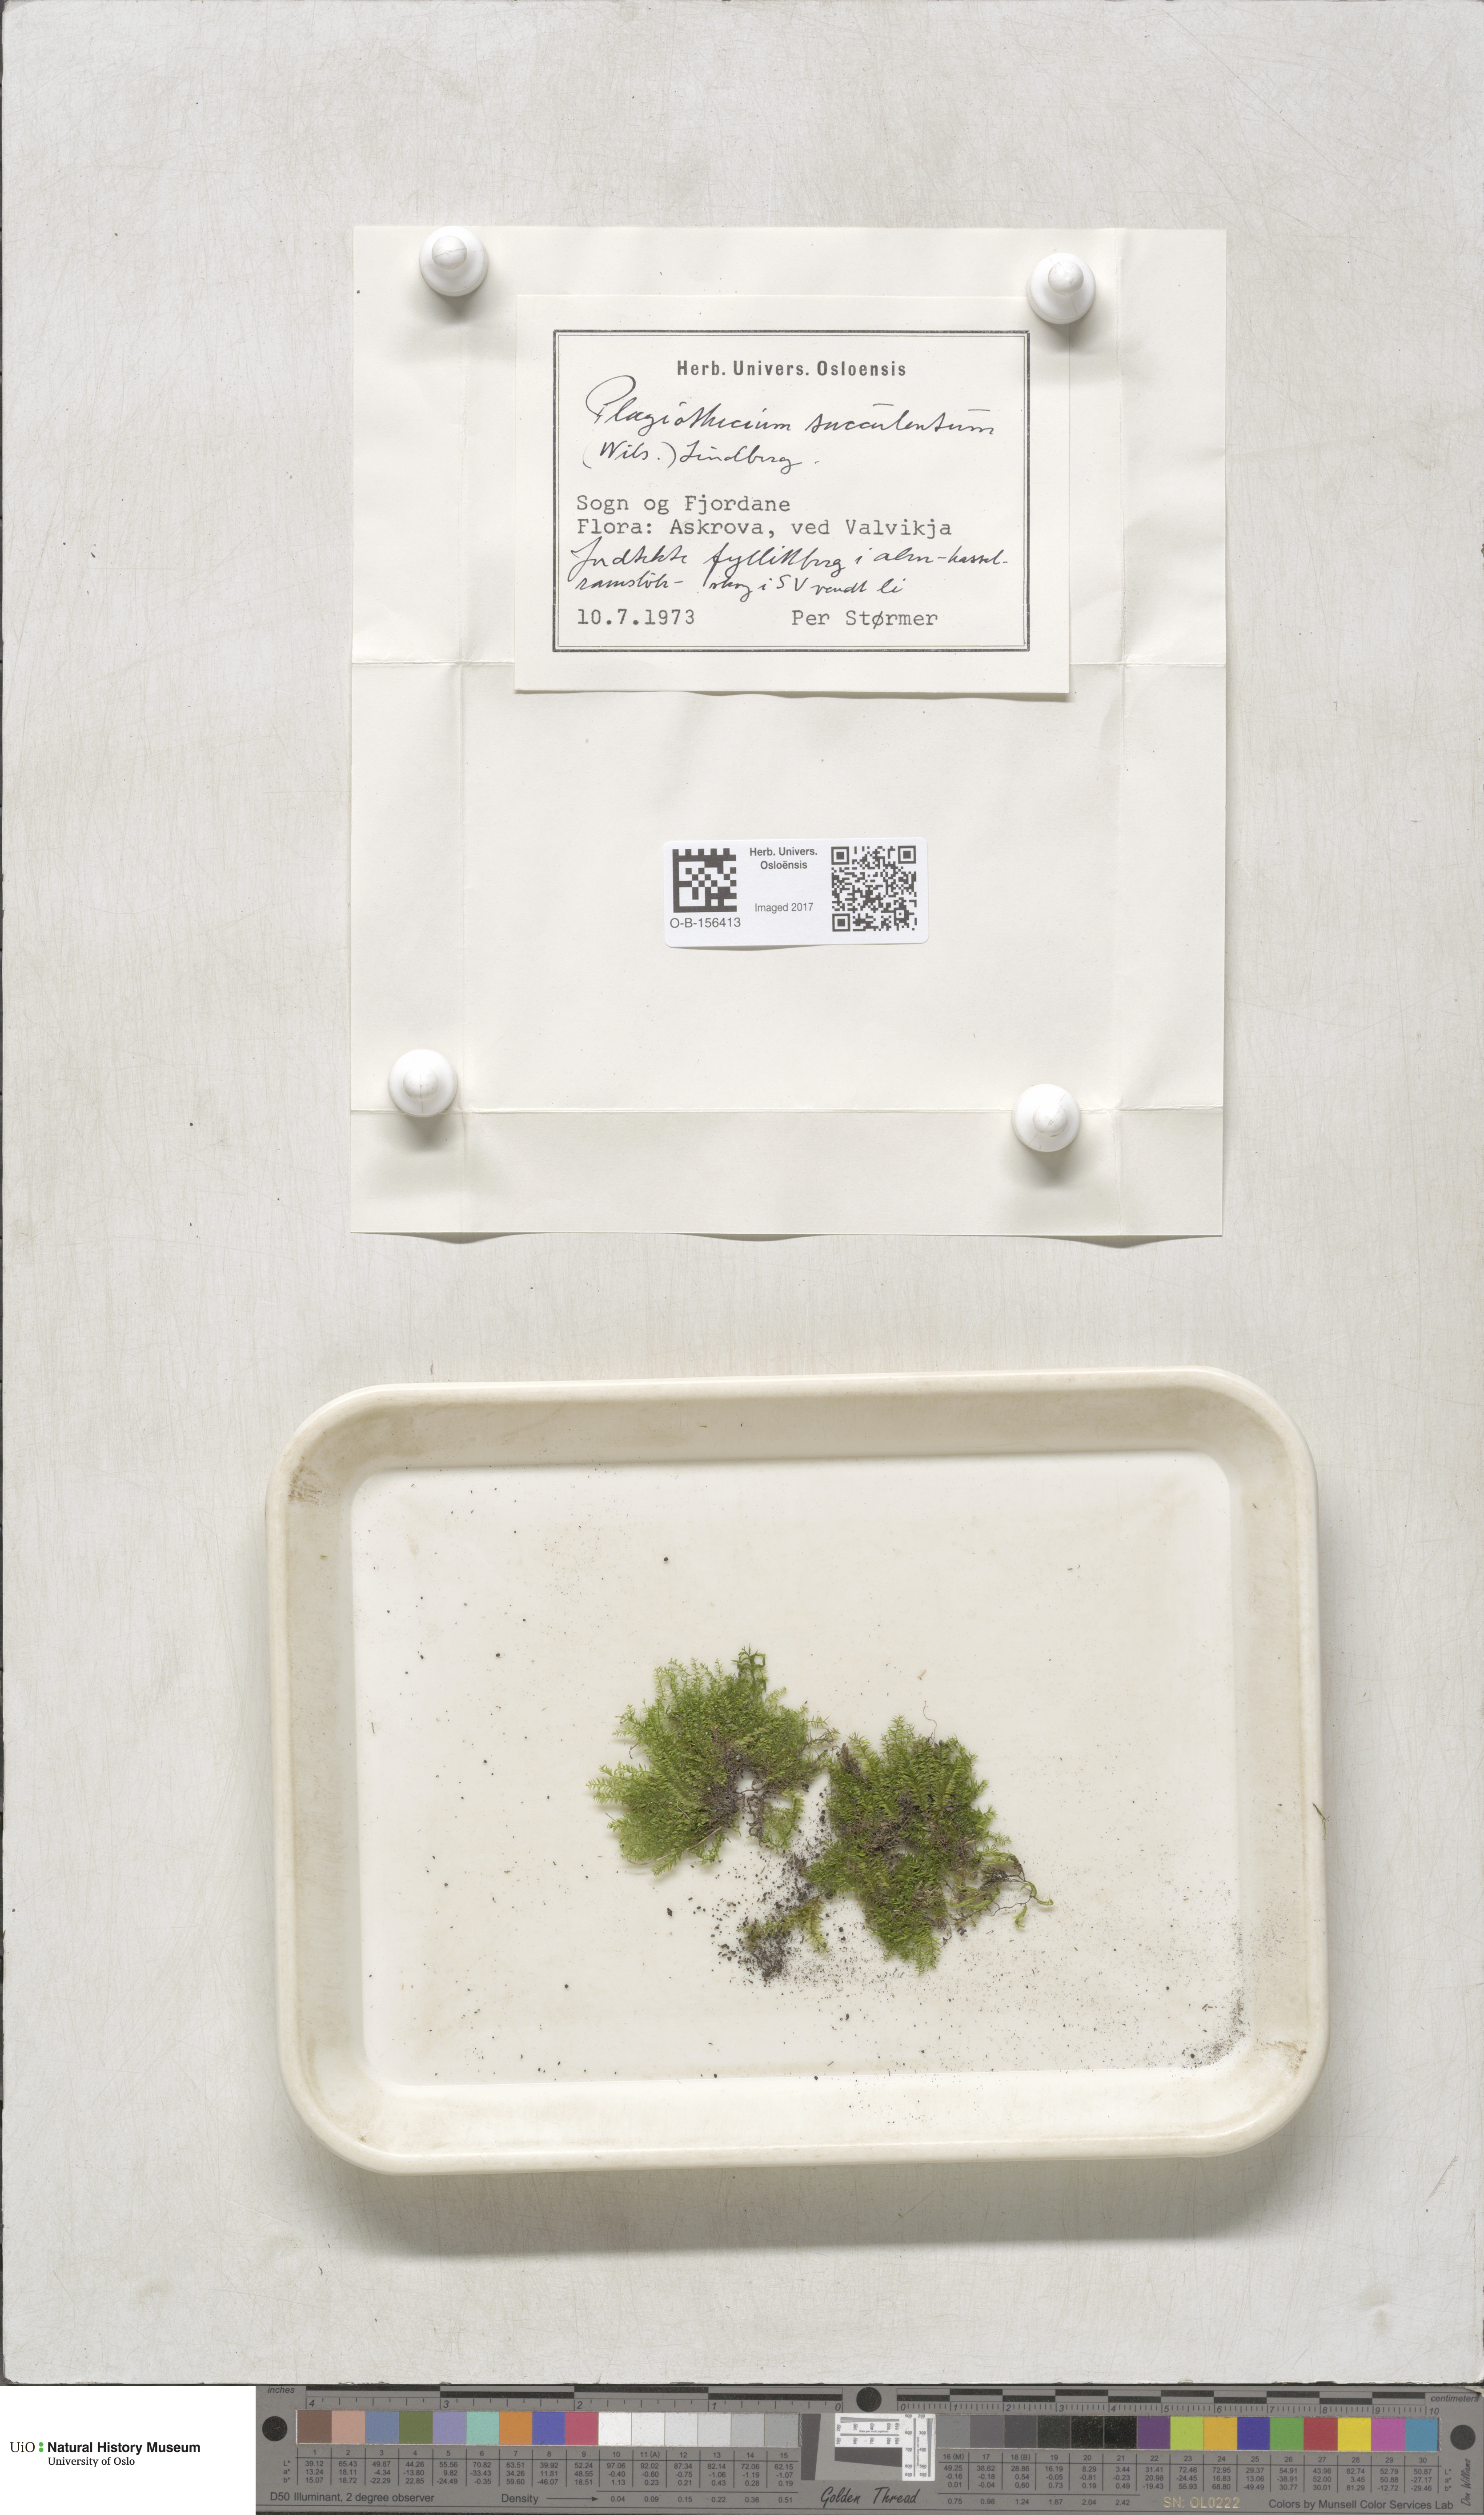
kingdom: Plantae
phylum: Bryophyta
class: Bryopsida
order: Hypnales
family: Plagiotheciaceae
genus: Plagiothecium
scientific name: Plagiothecium nemorale
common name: Woodsy silk-moss
